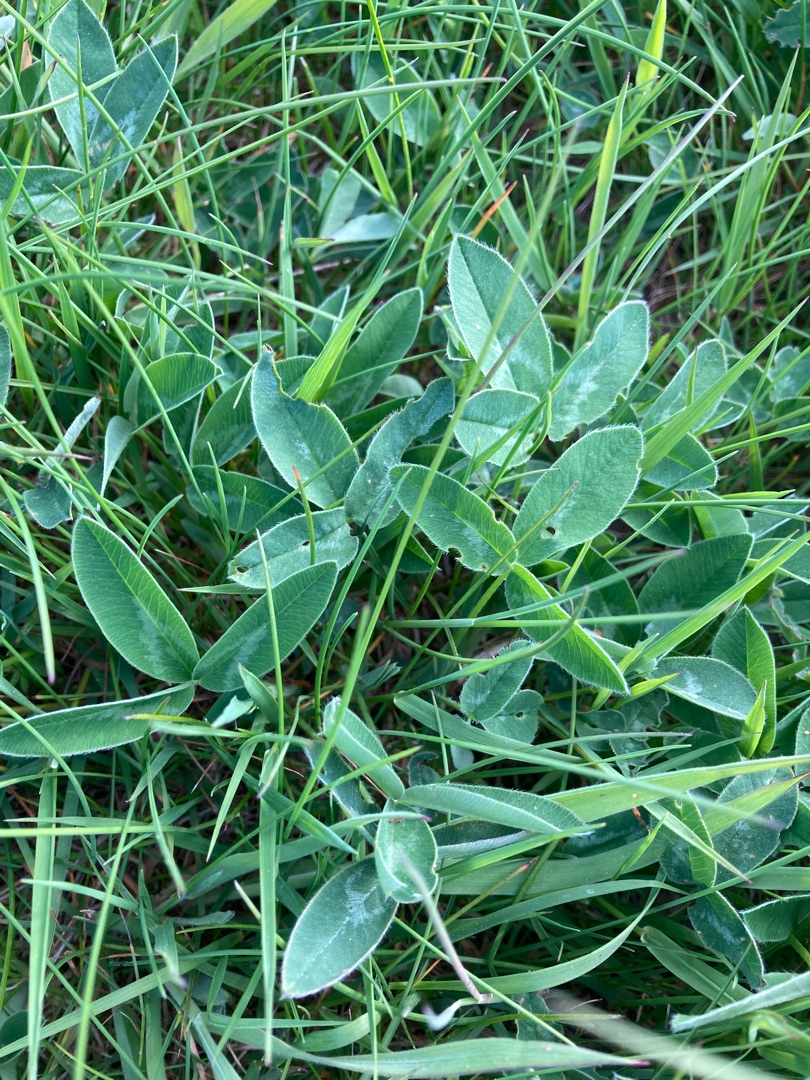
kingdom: Plantae
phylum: Tracheophyta
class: Magnoliopsida
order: Fabales
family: Fabaceae
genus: Trifolium
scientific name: Trifolium medium
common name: Bugtet kløver
